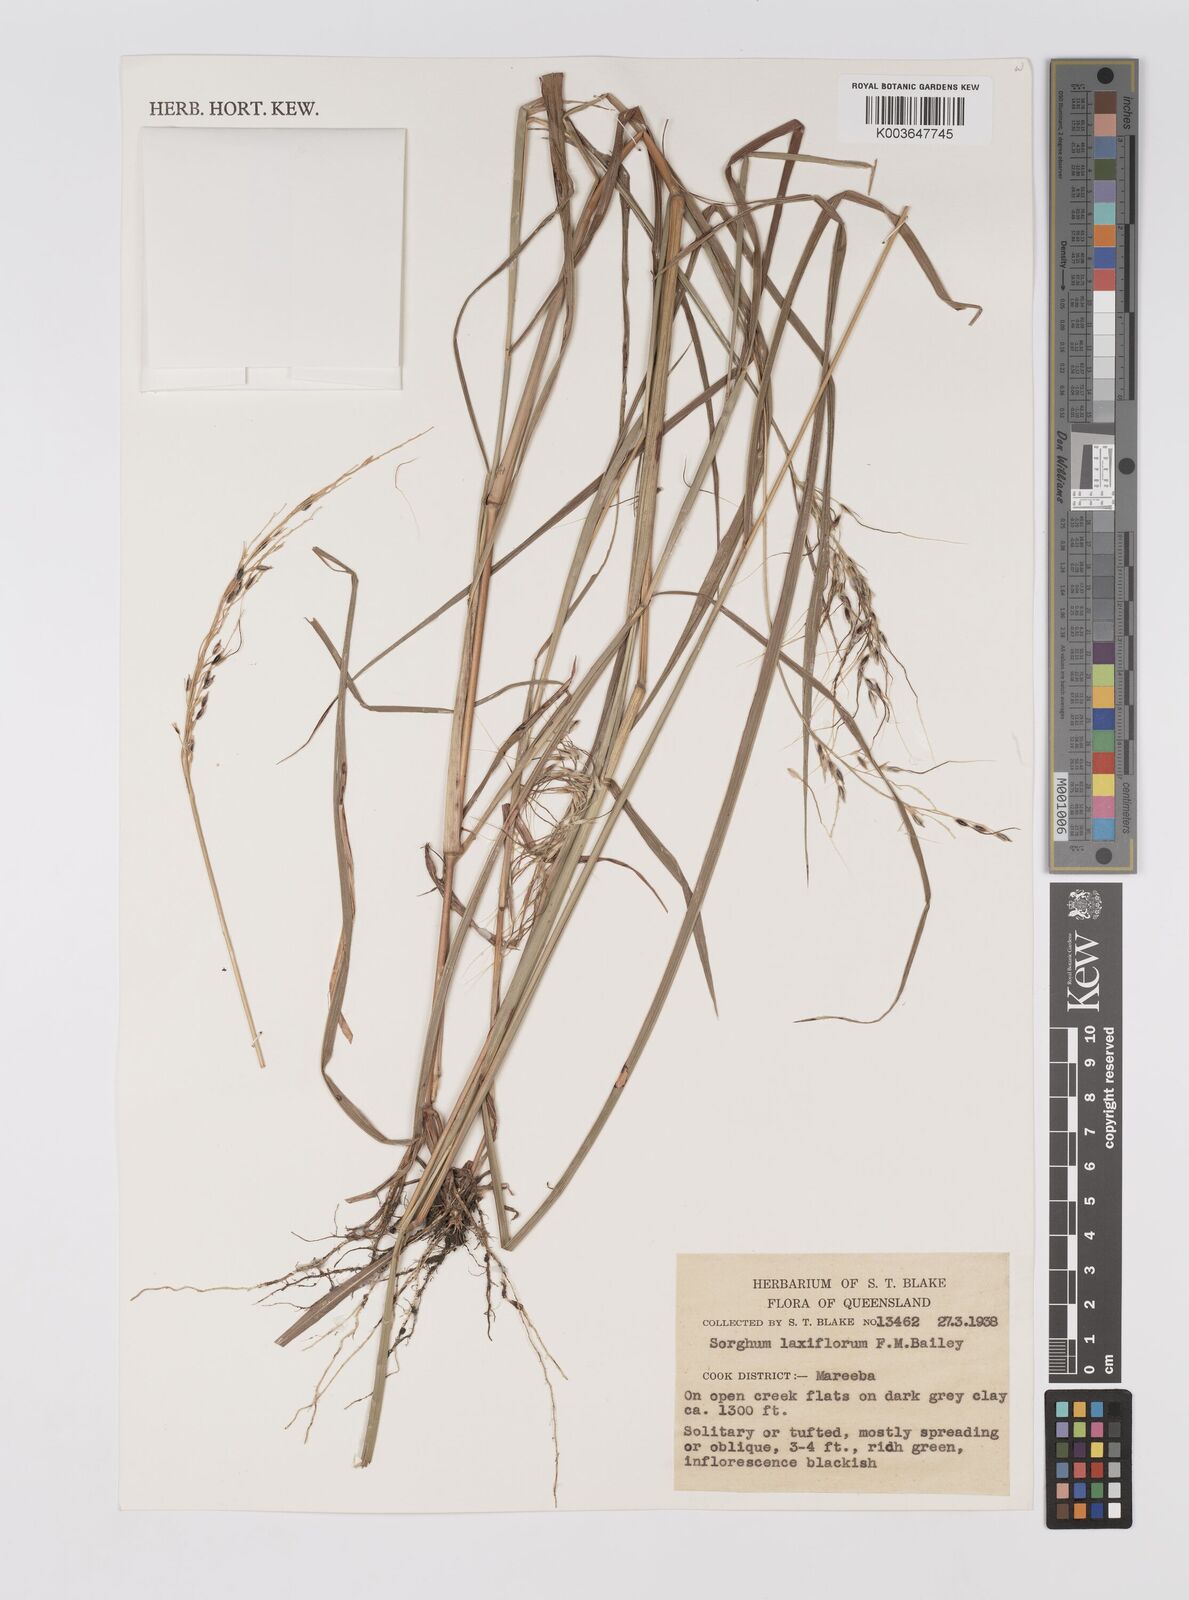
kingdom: Plantae
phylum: Tracheophyta
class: Liliopsida
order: Poales
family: Poaceae
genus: Sorghum
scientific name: Sorghum laxiflorum
